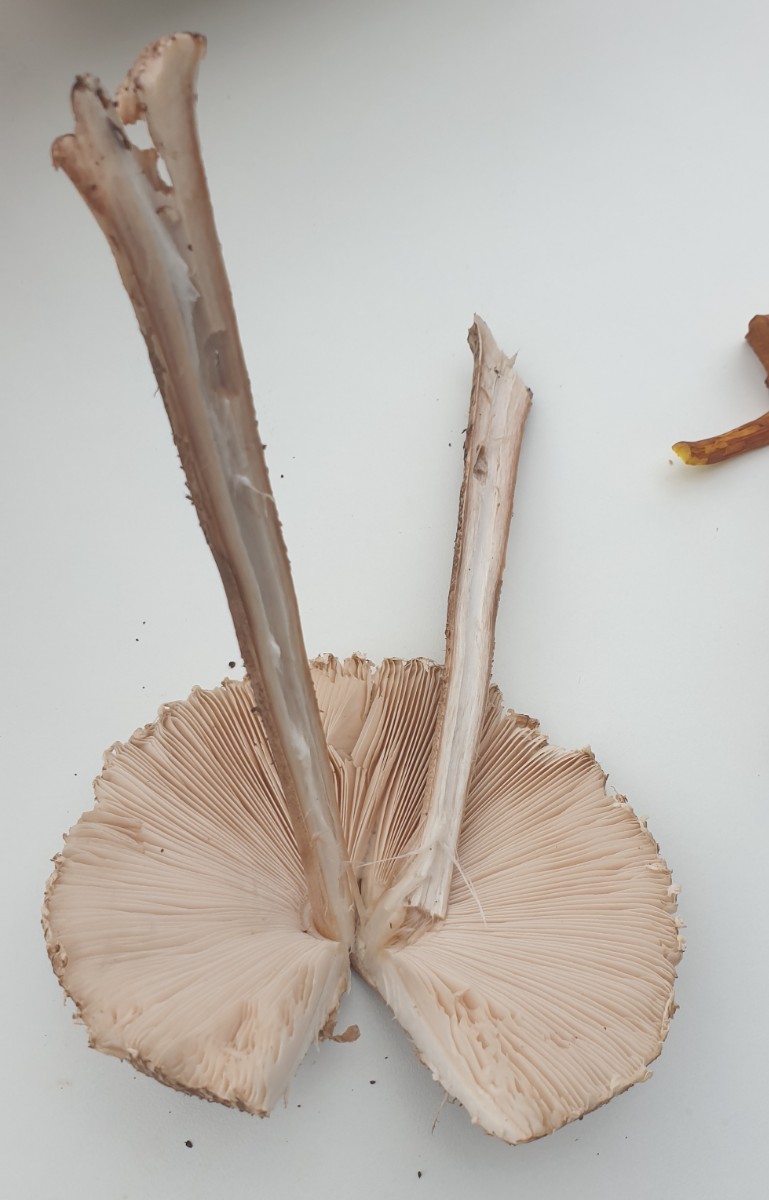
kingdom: Fungi
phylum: Basidiomycota
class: Agaricomycetes
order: Agaricales
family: Agaricaceae
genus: Macrolepiota
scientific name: Macrolepiota fuliginosa
